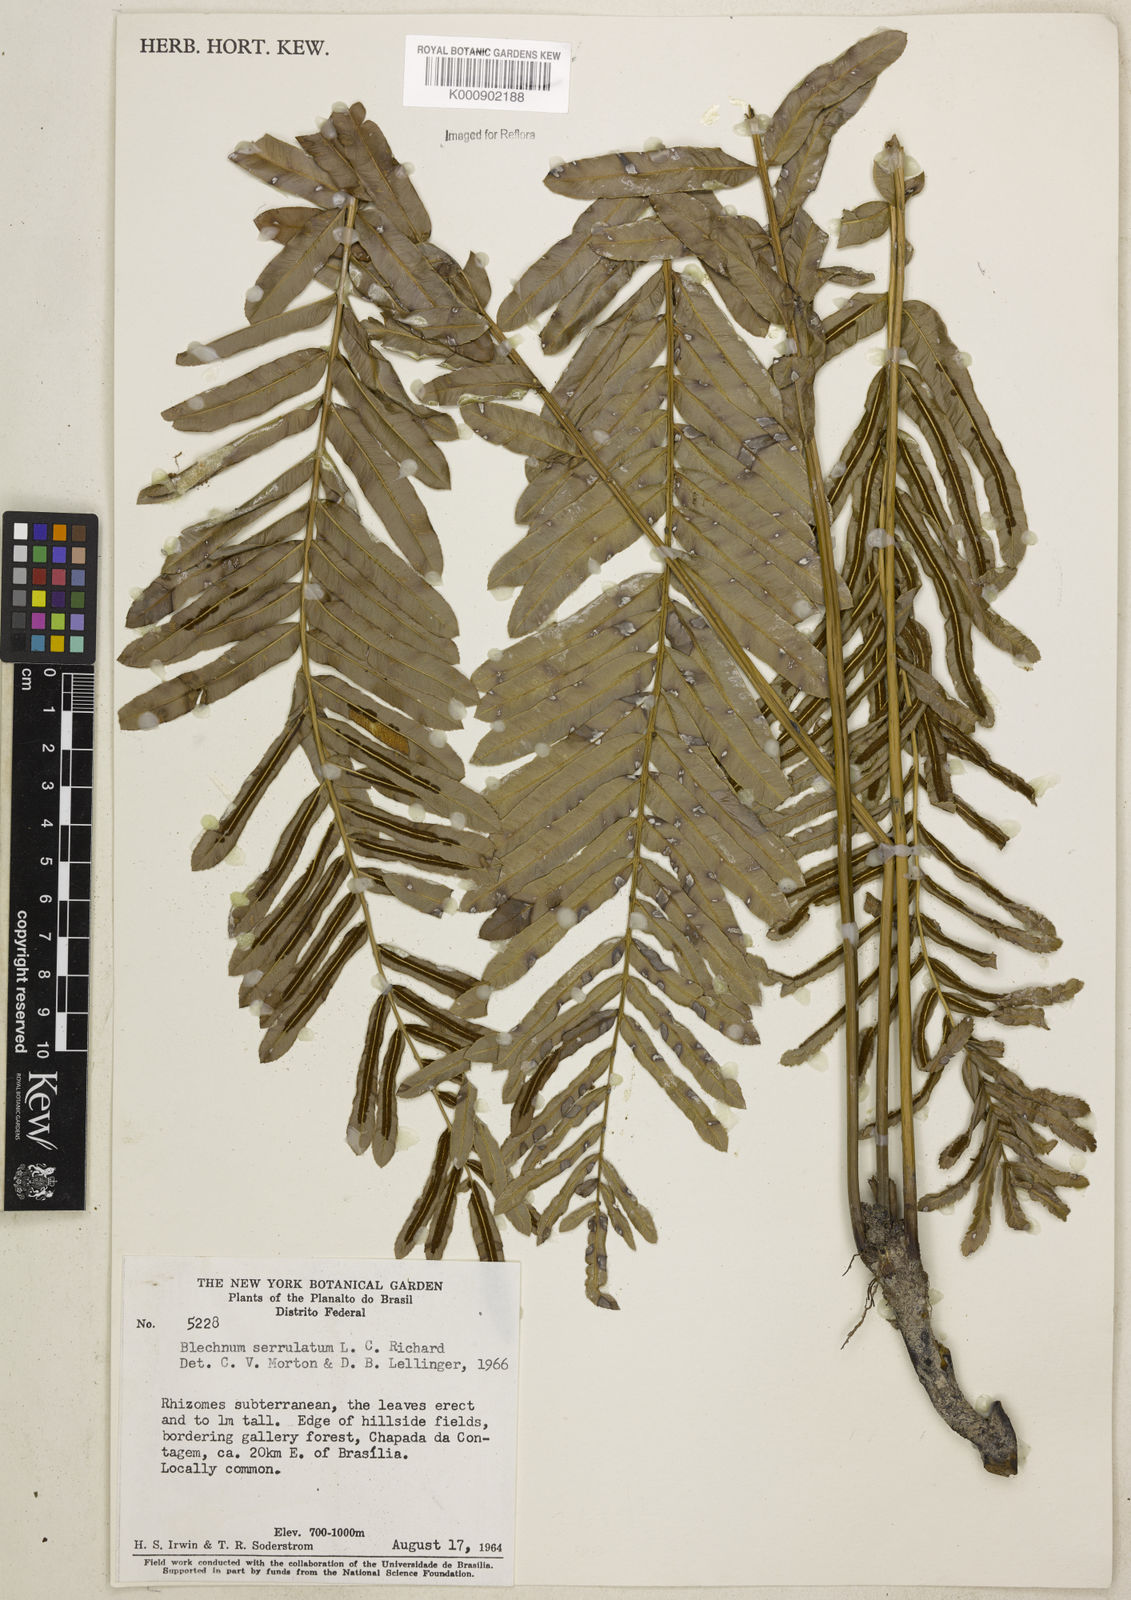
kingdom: Plantae
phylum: Tracheophyta
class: Polypodiopsida
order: Polypodiales
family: Blechnaceae
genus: Telmatoblechnum
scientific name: Telmatoblechnum serrulatum
